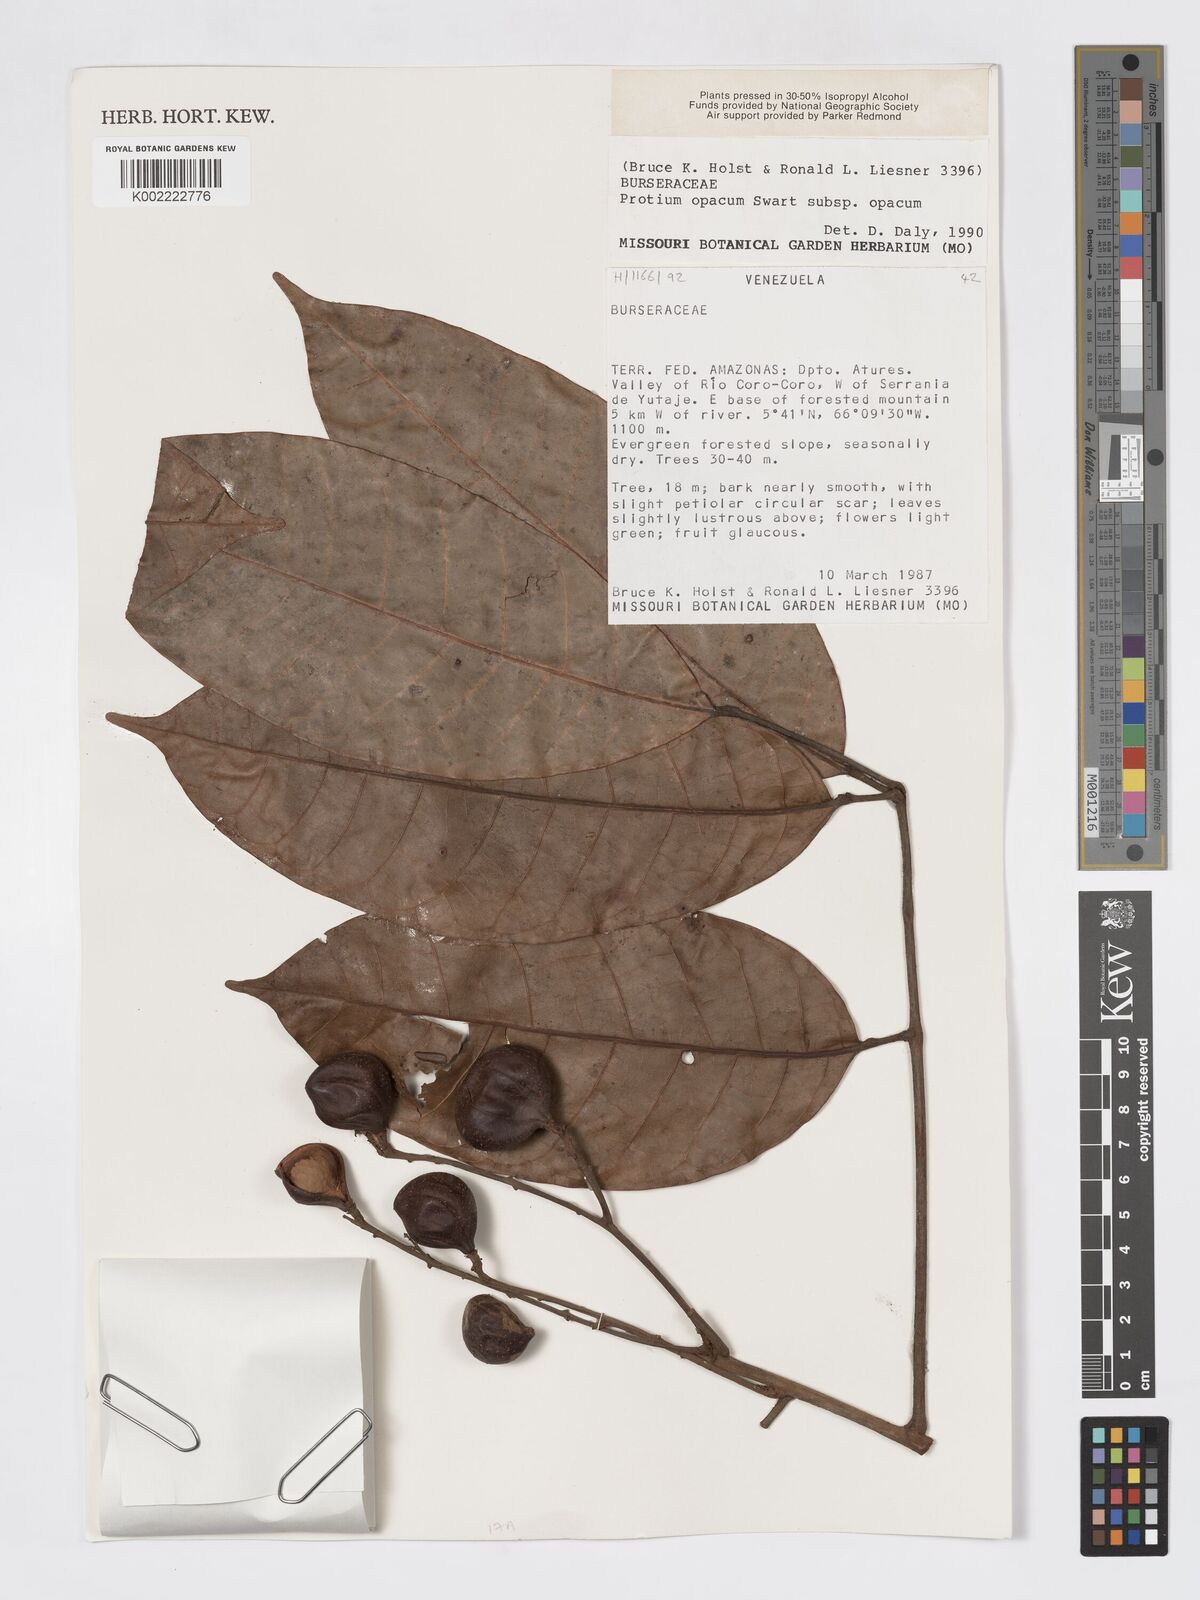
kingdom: Plantae
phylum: Tracheophyta
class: Magnoliopsida
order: Sapindales
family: Burseraceae
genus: Protium
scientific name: Protium opacum
